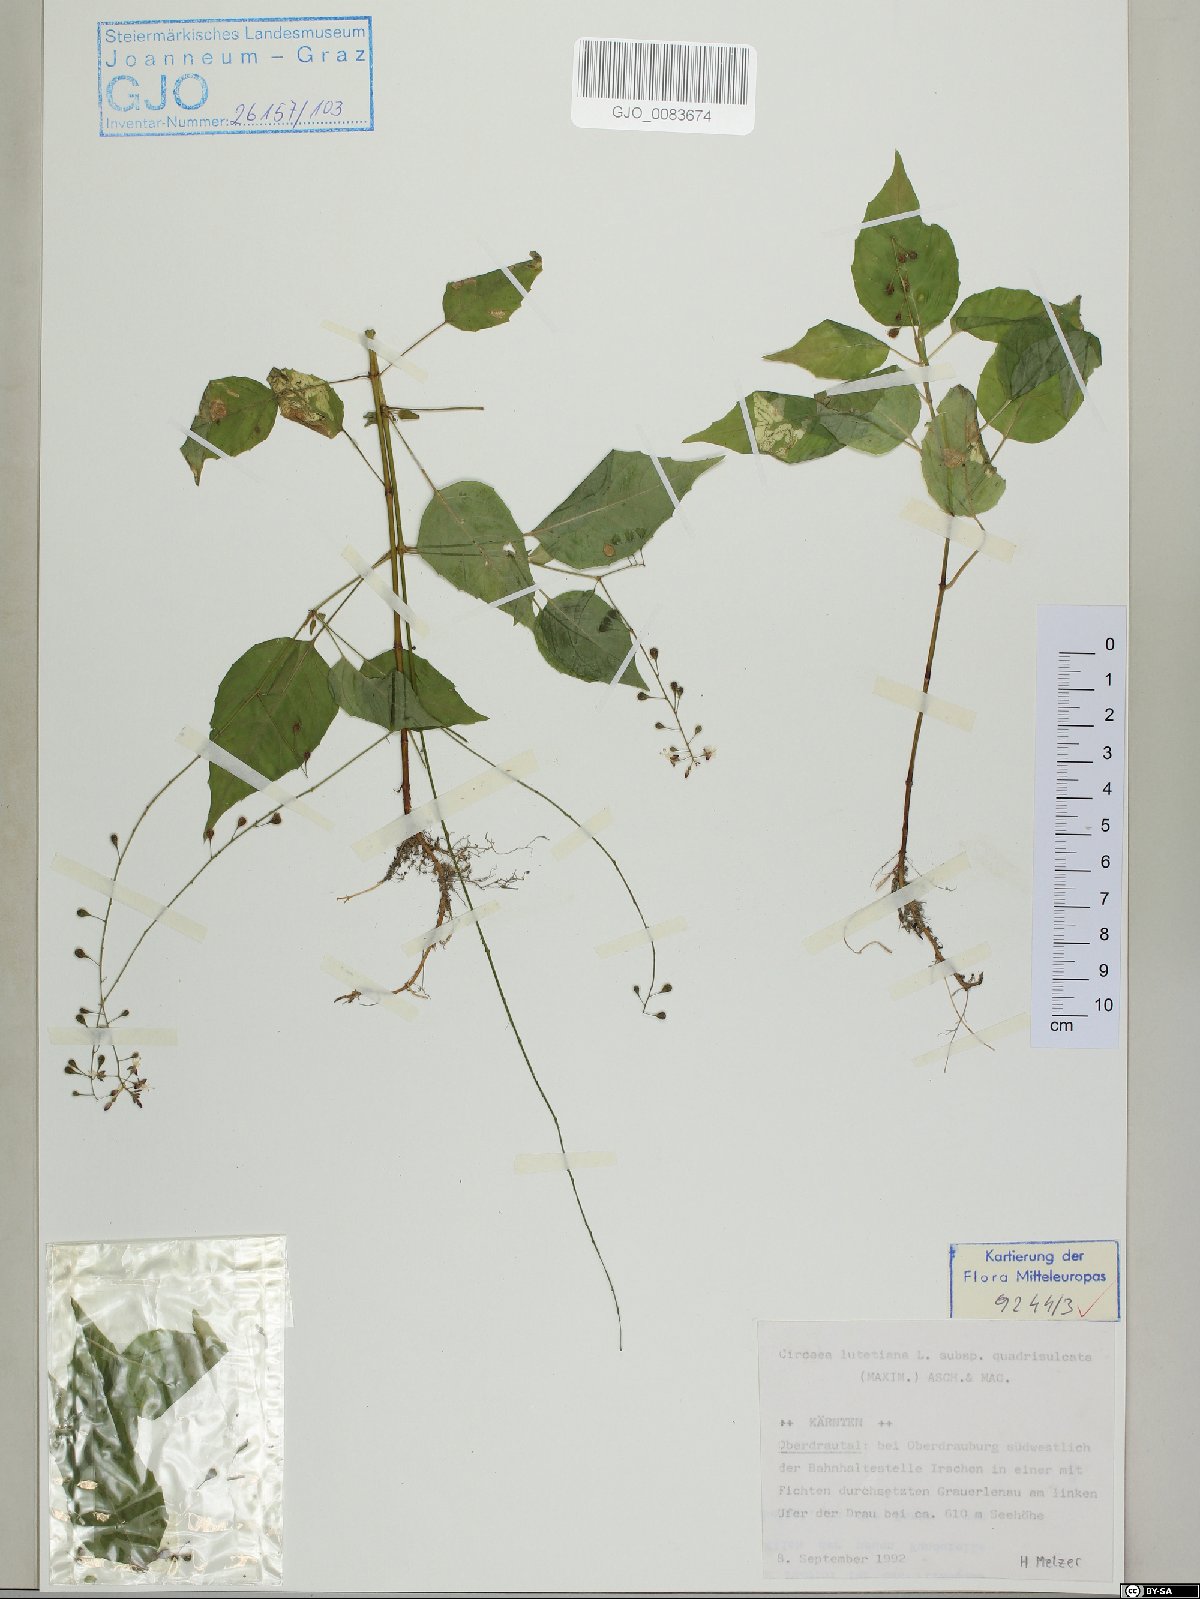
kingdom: Plantae
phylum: Tracheophyta
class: Magnoliopsida
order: Myrtales
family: Onagraceae
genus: Circaea
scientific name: Circaea canadensis
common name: Broad-leaved enchanter's nightshade
